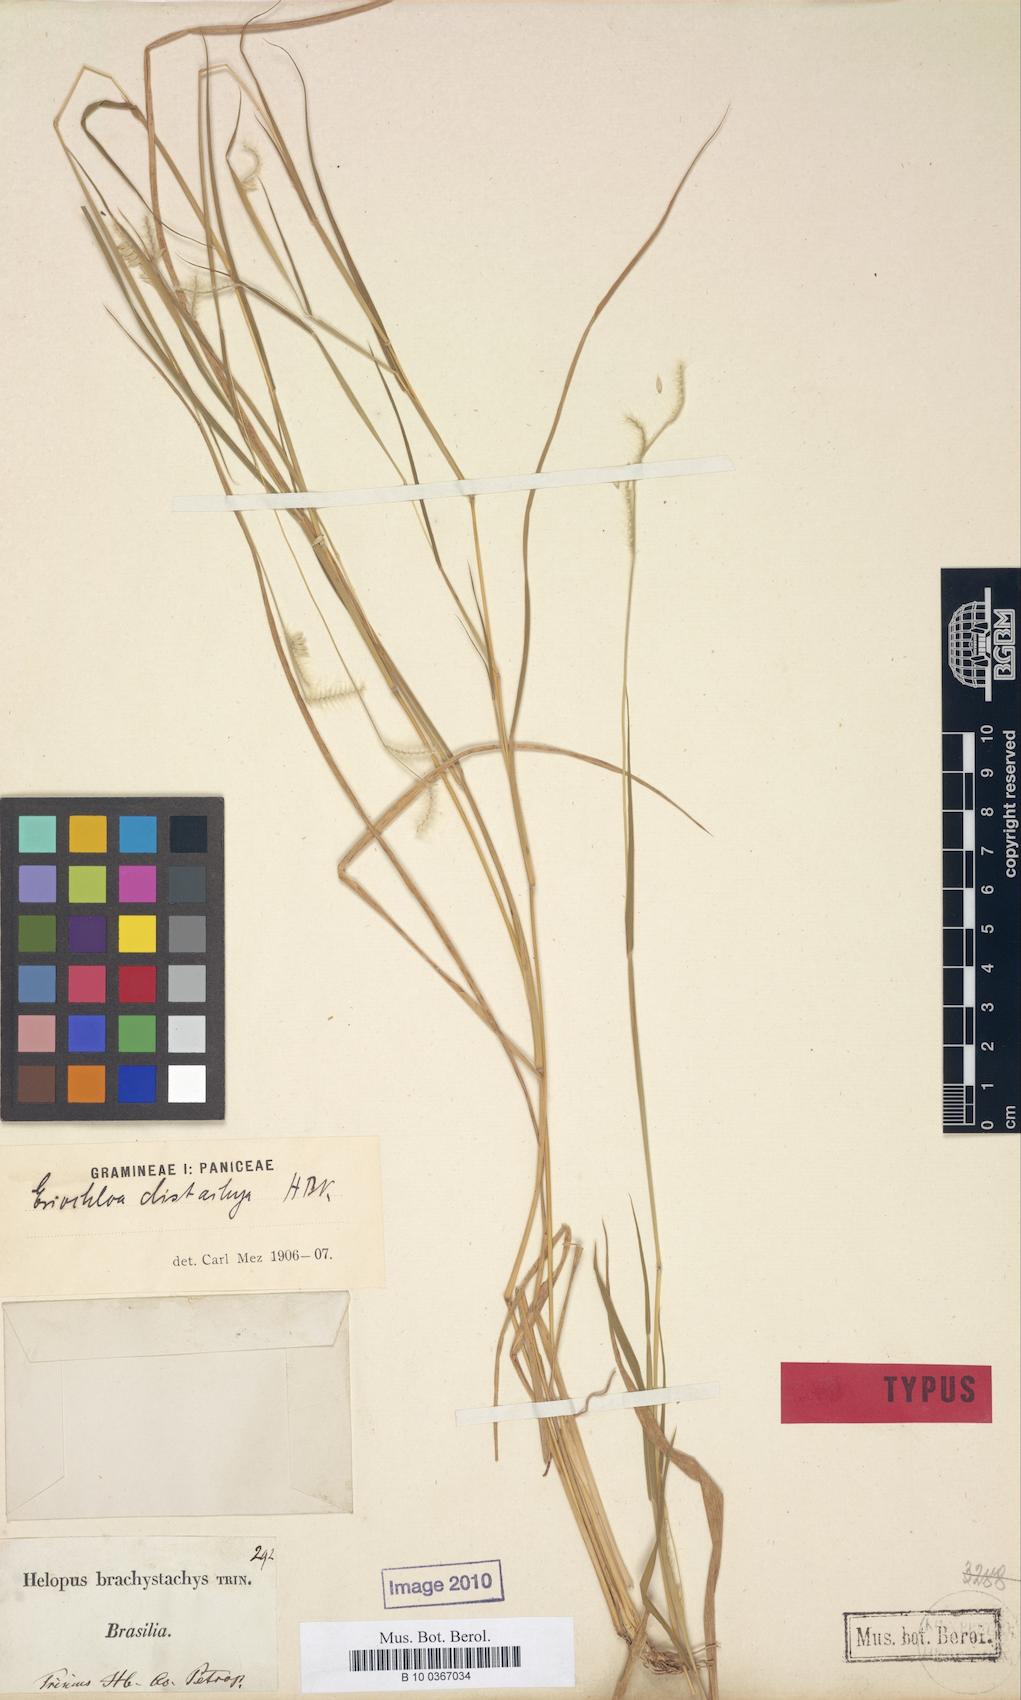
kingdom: Plantae
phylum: Tracheophyta
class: Liliopsida
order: Poales
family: Poaceae
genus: Eriochloa
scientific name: Eriochloa distachya
